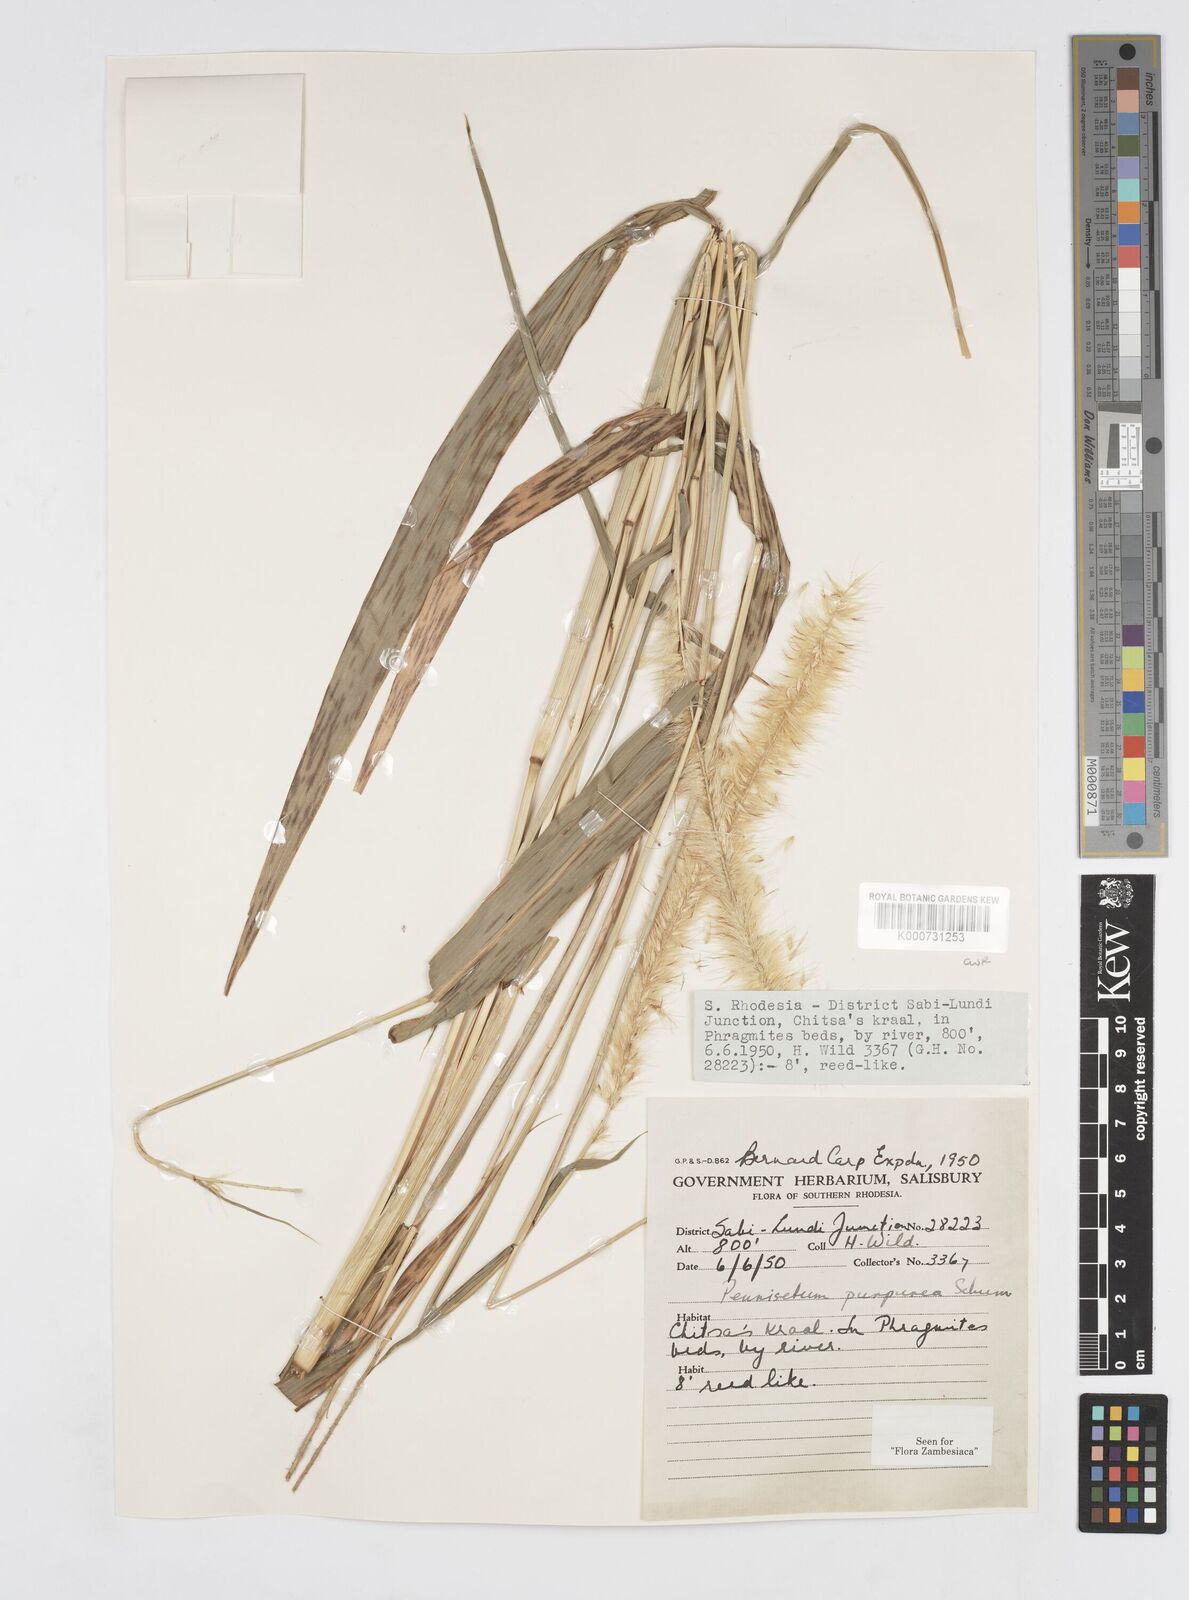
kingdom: Plantae
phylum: Tracheophyta
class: Liliopsida
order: Poales
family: Poaceae
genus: Cenchrus
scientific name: Cenchrus purpureus
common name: Elephant grass
